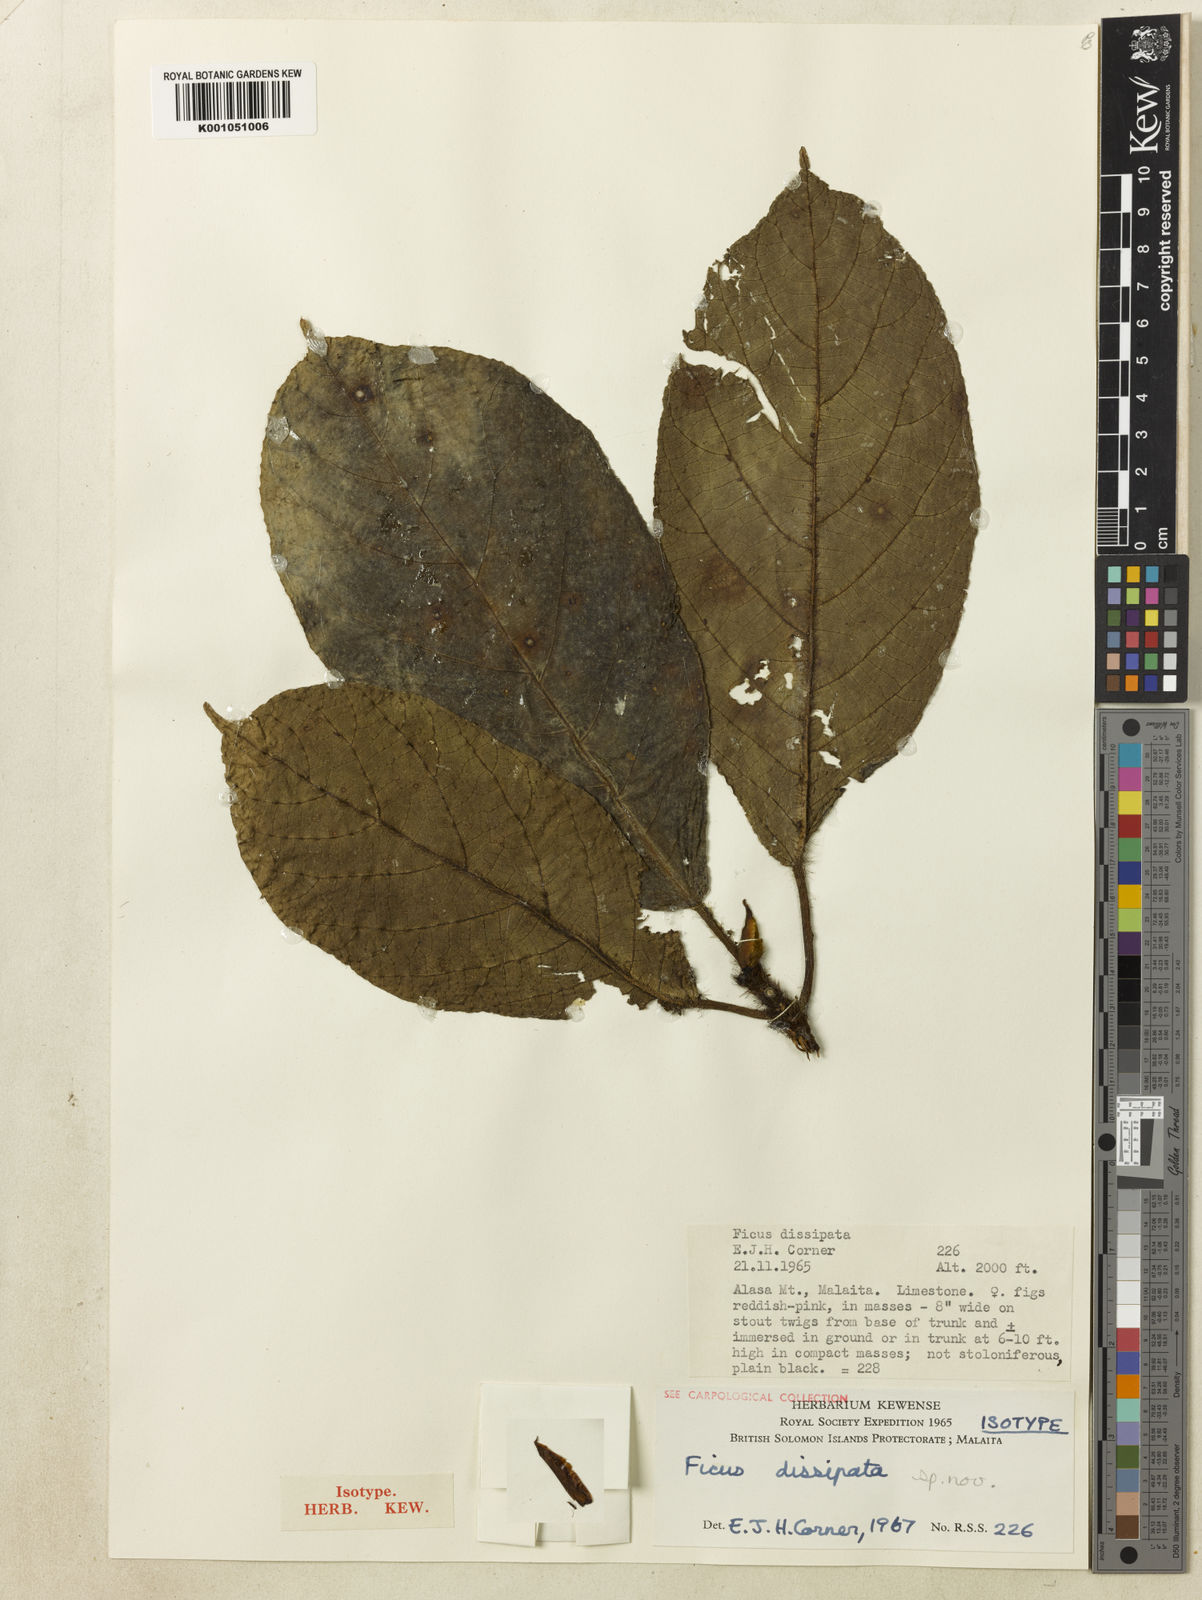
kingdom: Plantae
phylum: Tracheophyta
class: Magnoliopsida
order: Rosales
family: Moraceae
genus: Ficus
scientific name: Ficus dissipata
